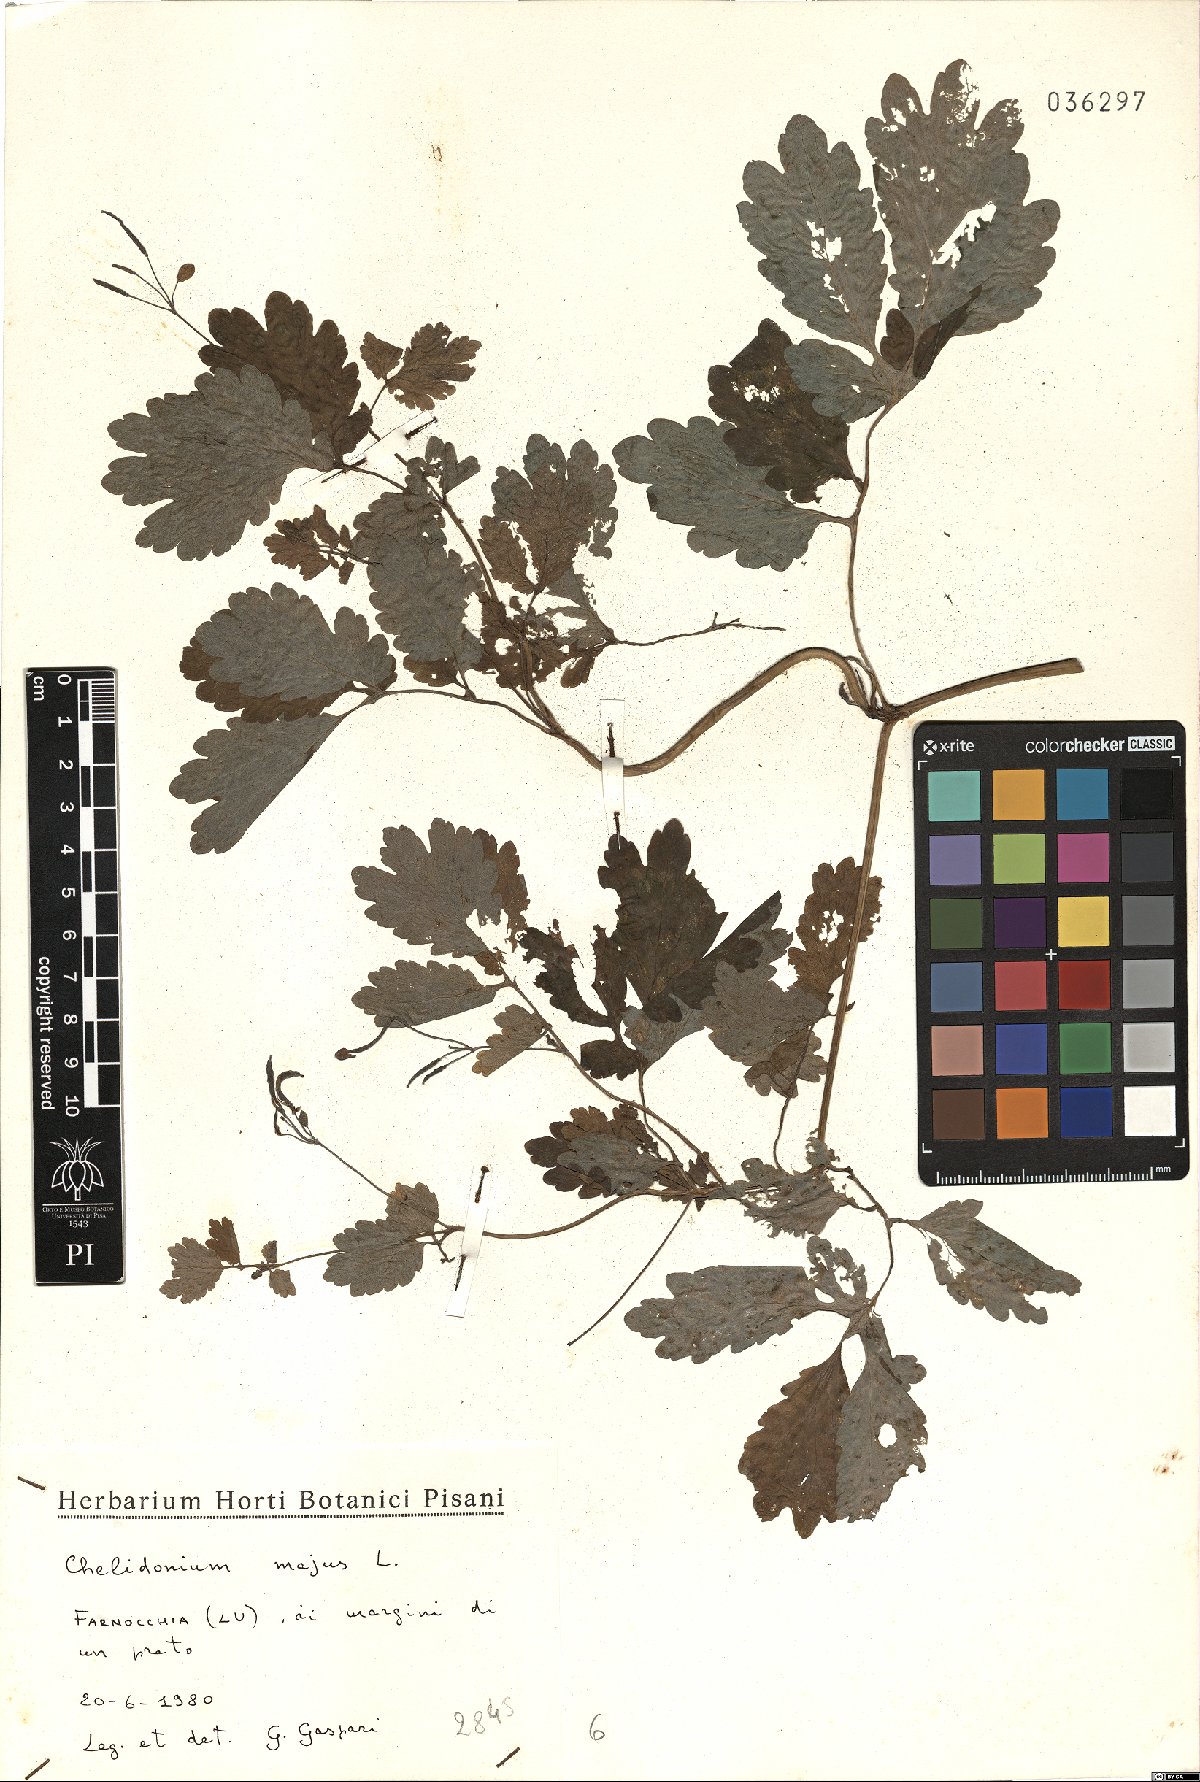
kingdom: Plantae
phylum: Tracheophyta
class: Magnoliopsida
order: Ranunculales
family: Papaveraceae
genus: Chelidonium
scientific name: Chelidonium majus
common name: Greater celandine
